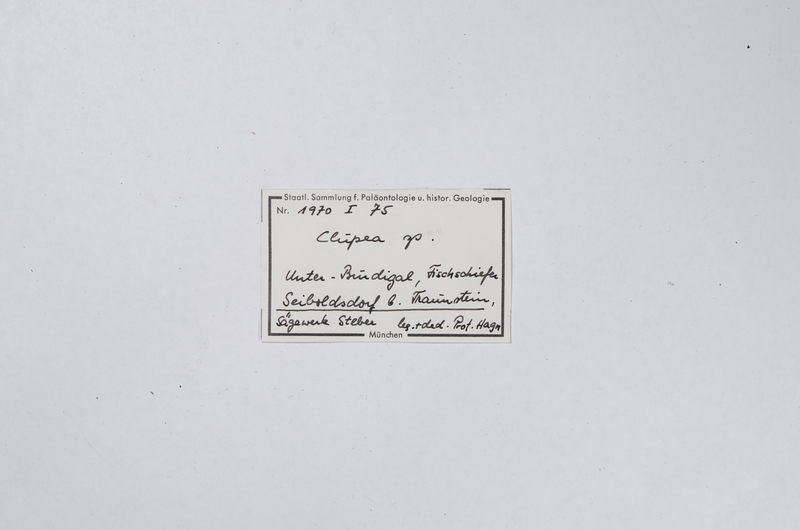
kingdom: Animalia
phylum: Chordata
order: Clupeiformes
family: Clupeidae
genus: Clupea
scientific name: Clupea
